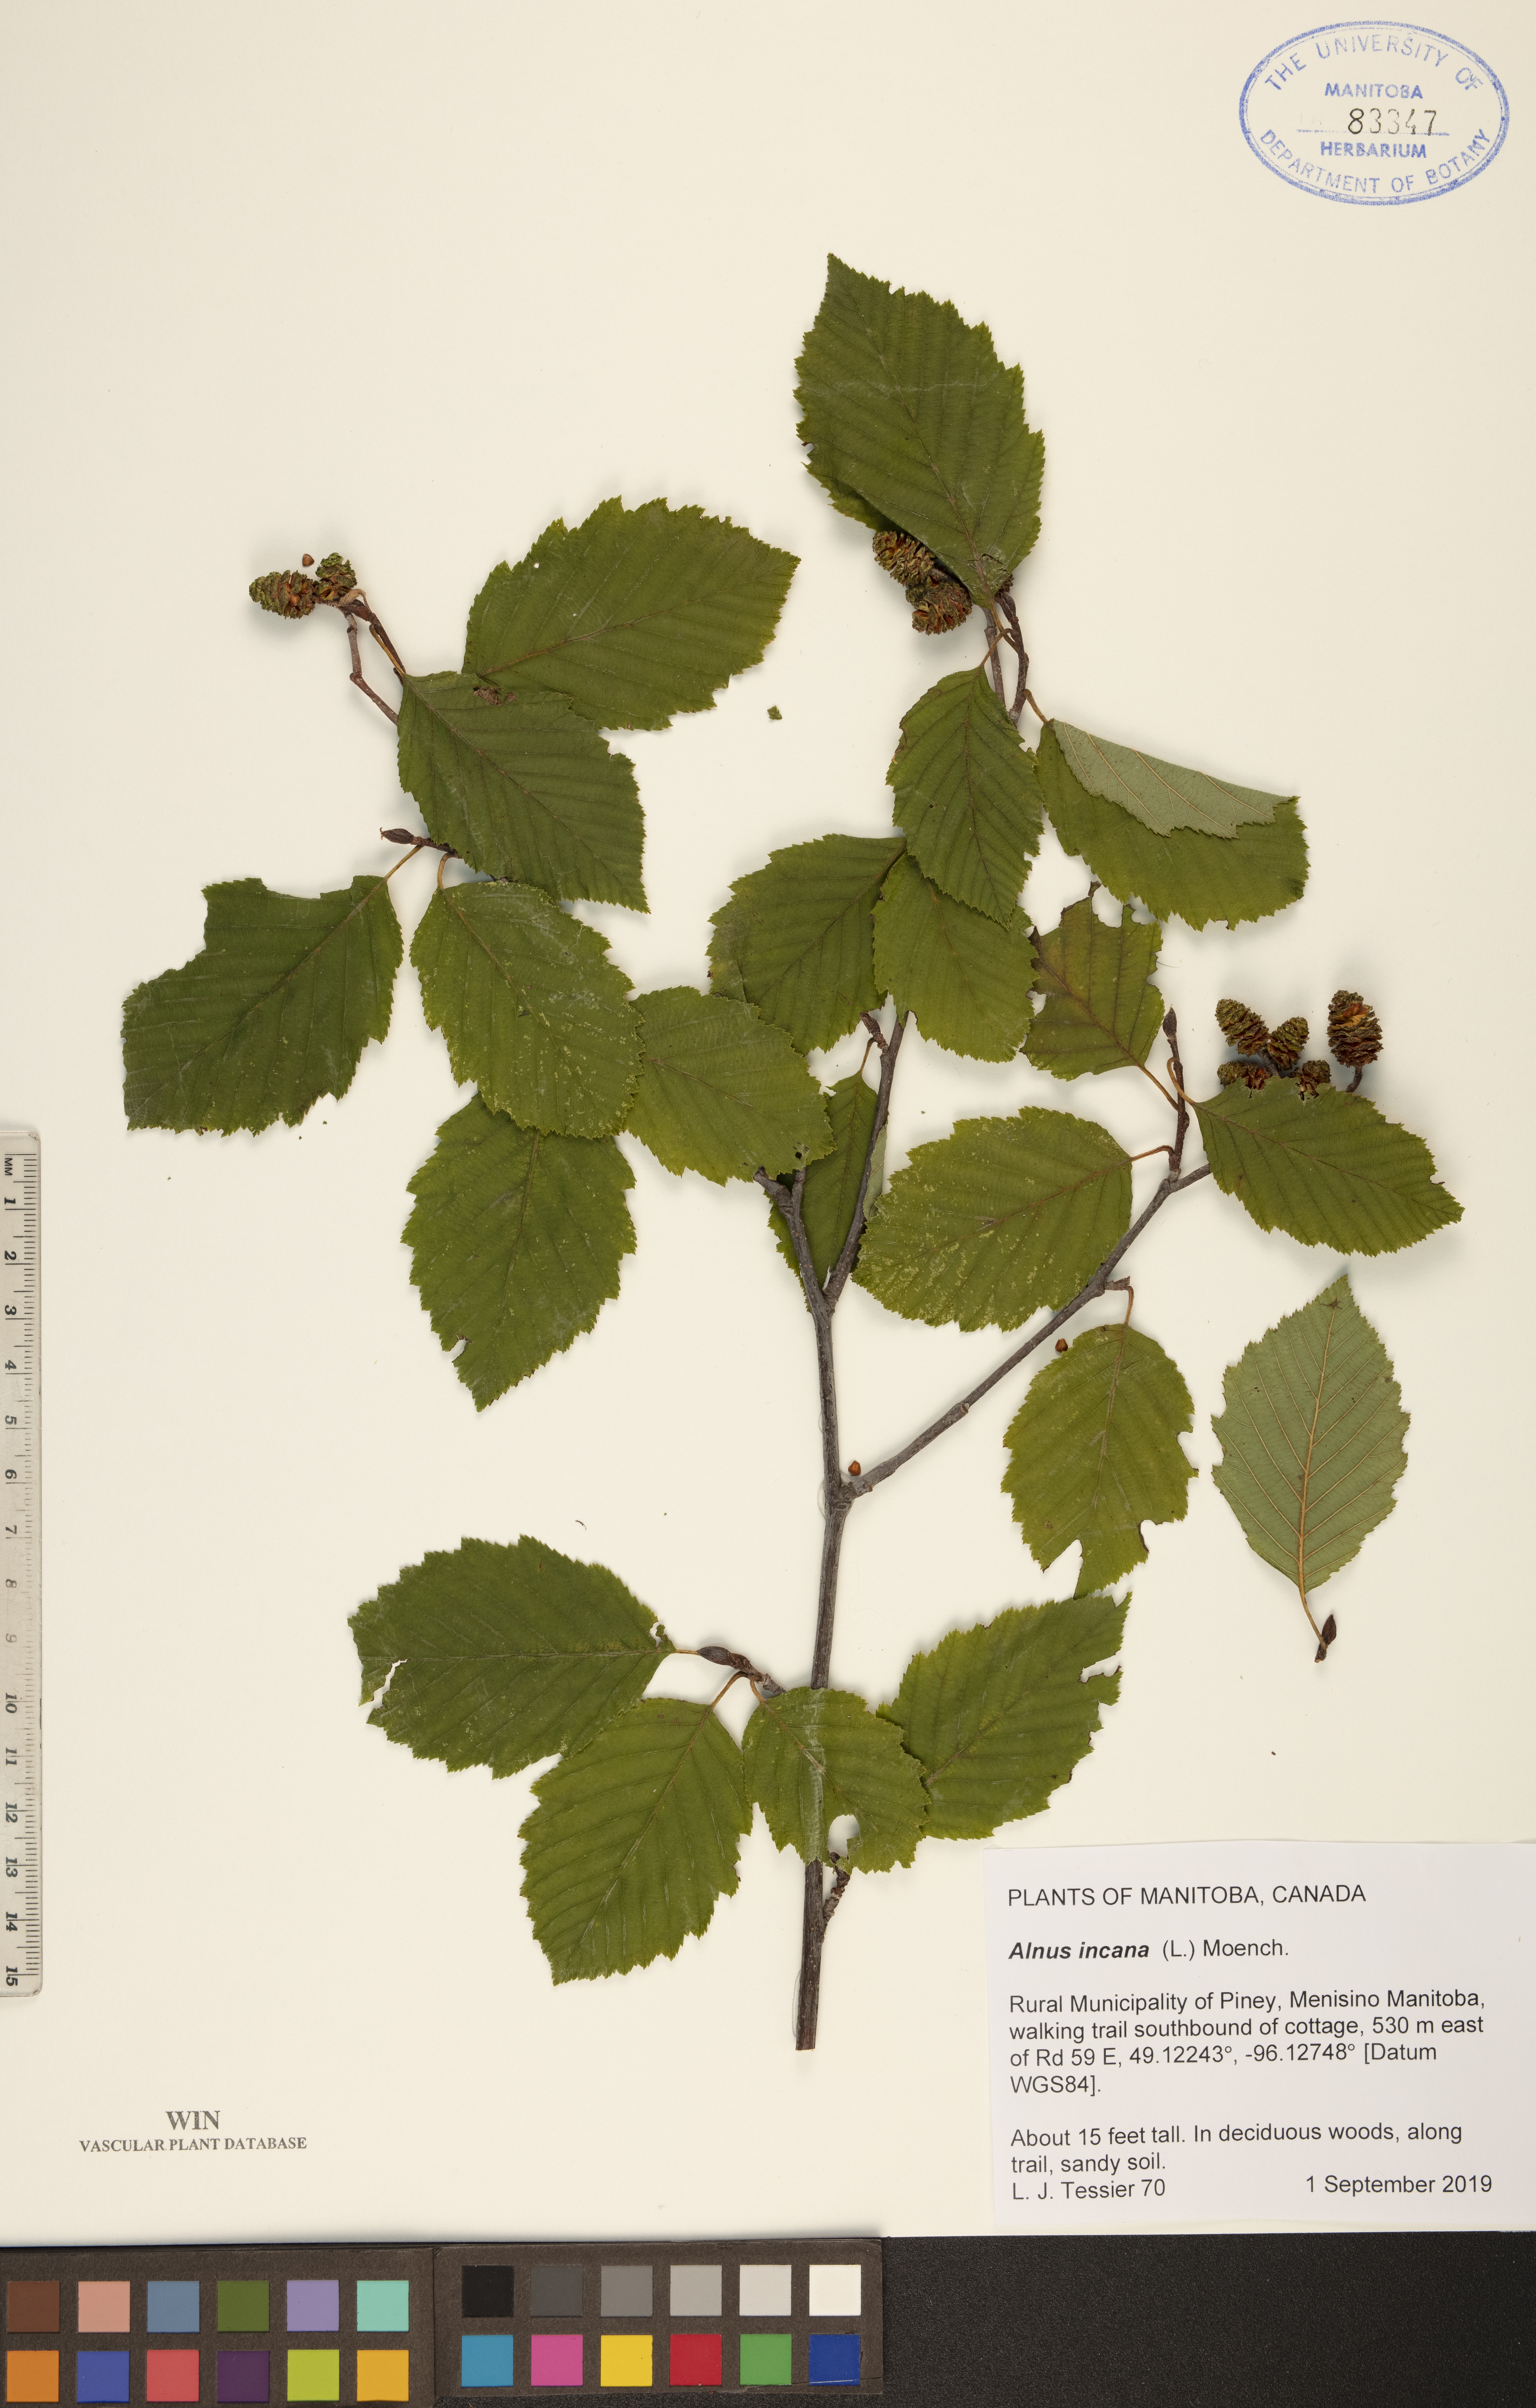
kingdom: Plantae
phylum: Tracheophyta
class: Magnoliopsida
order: Fagales
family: Betulaceae
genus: Alnus
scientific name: Alnus incana
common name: Grey alder
